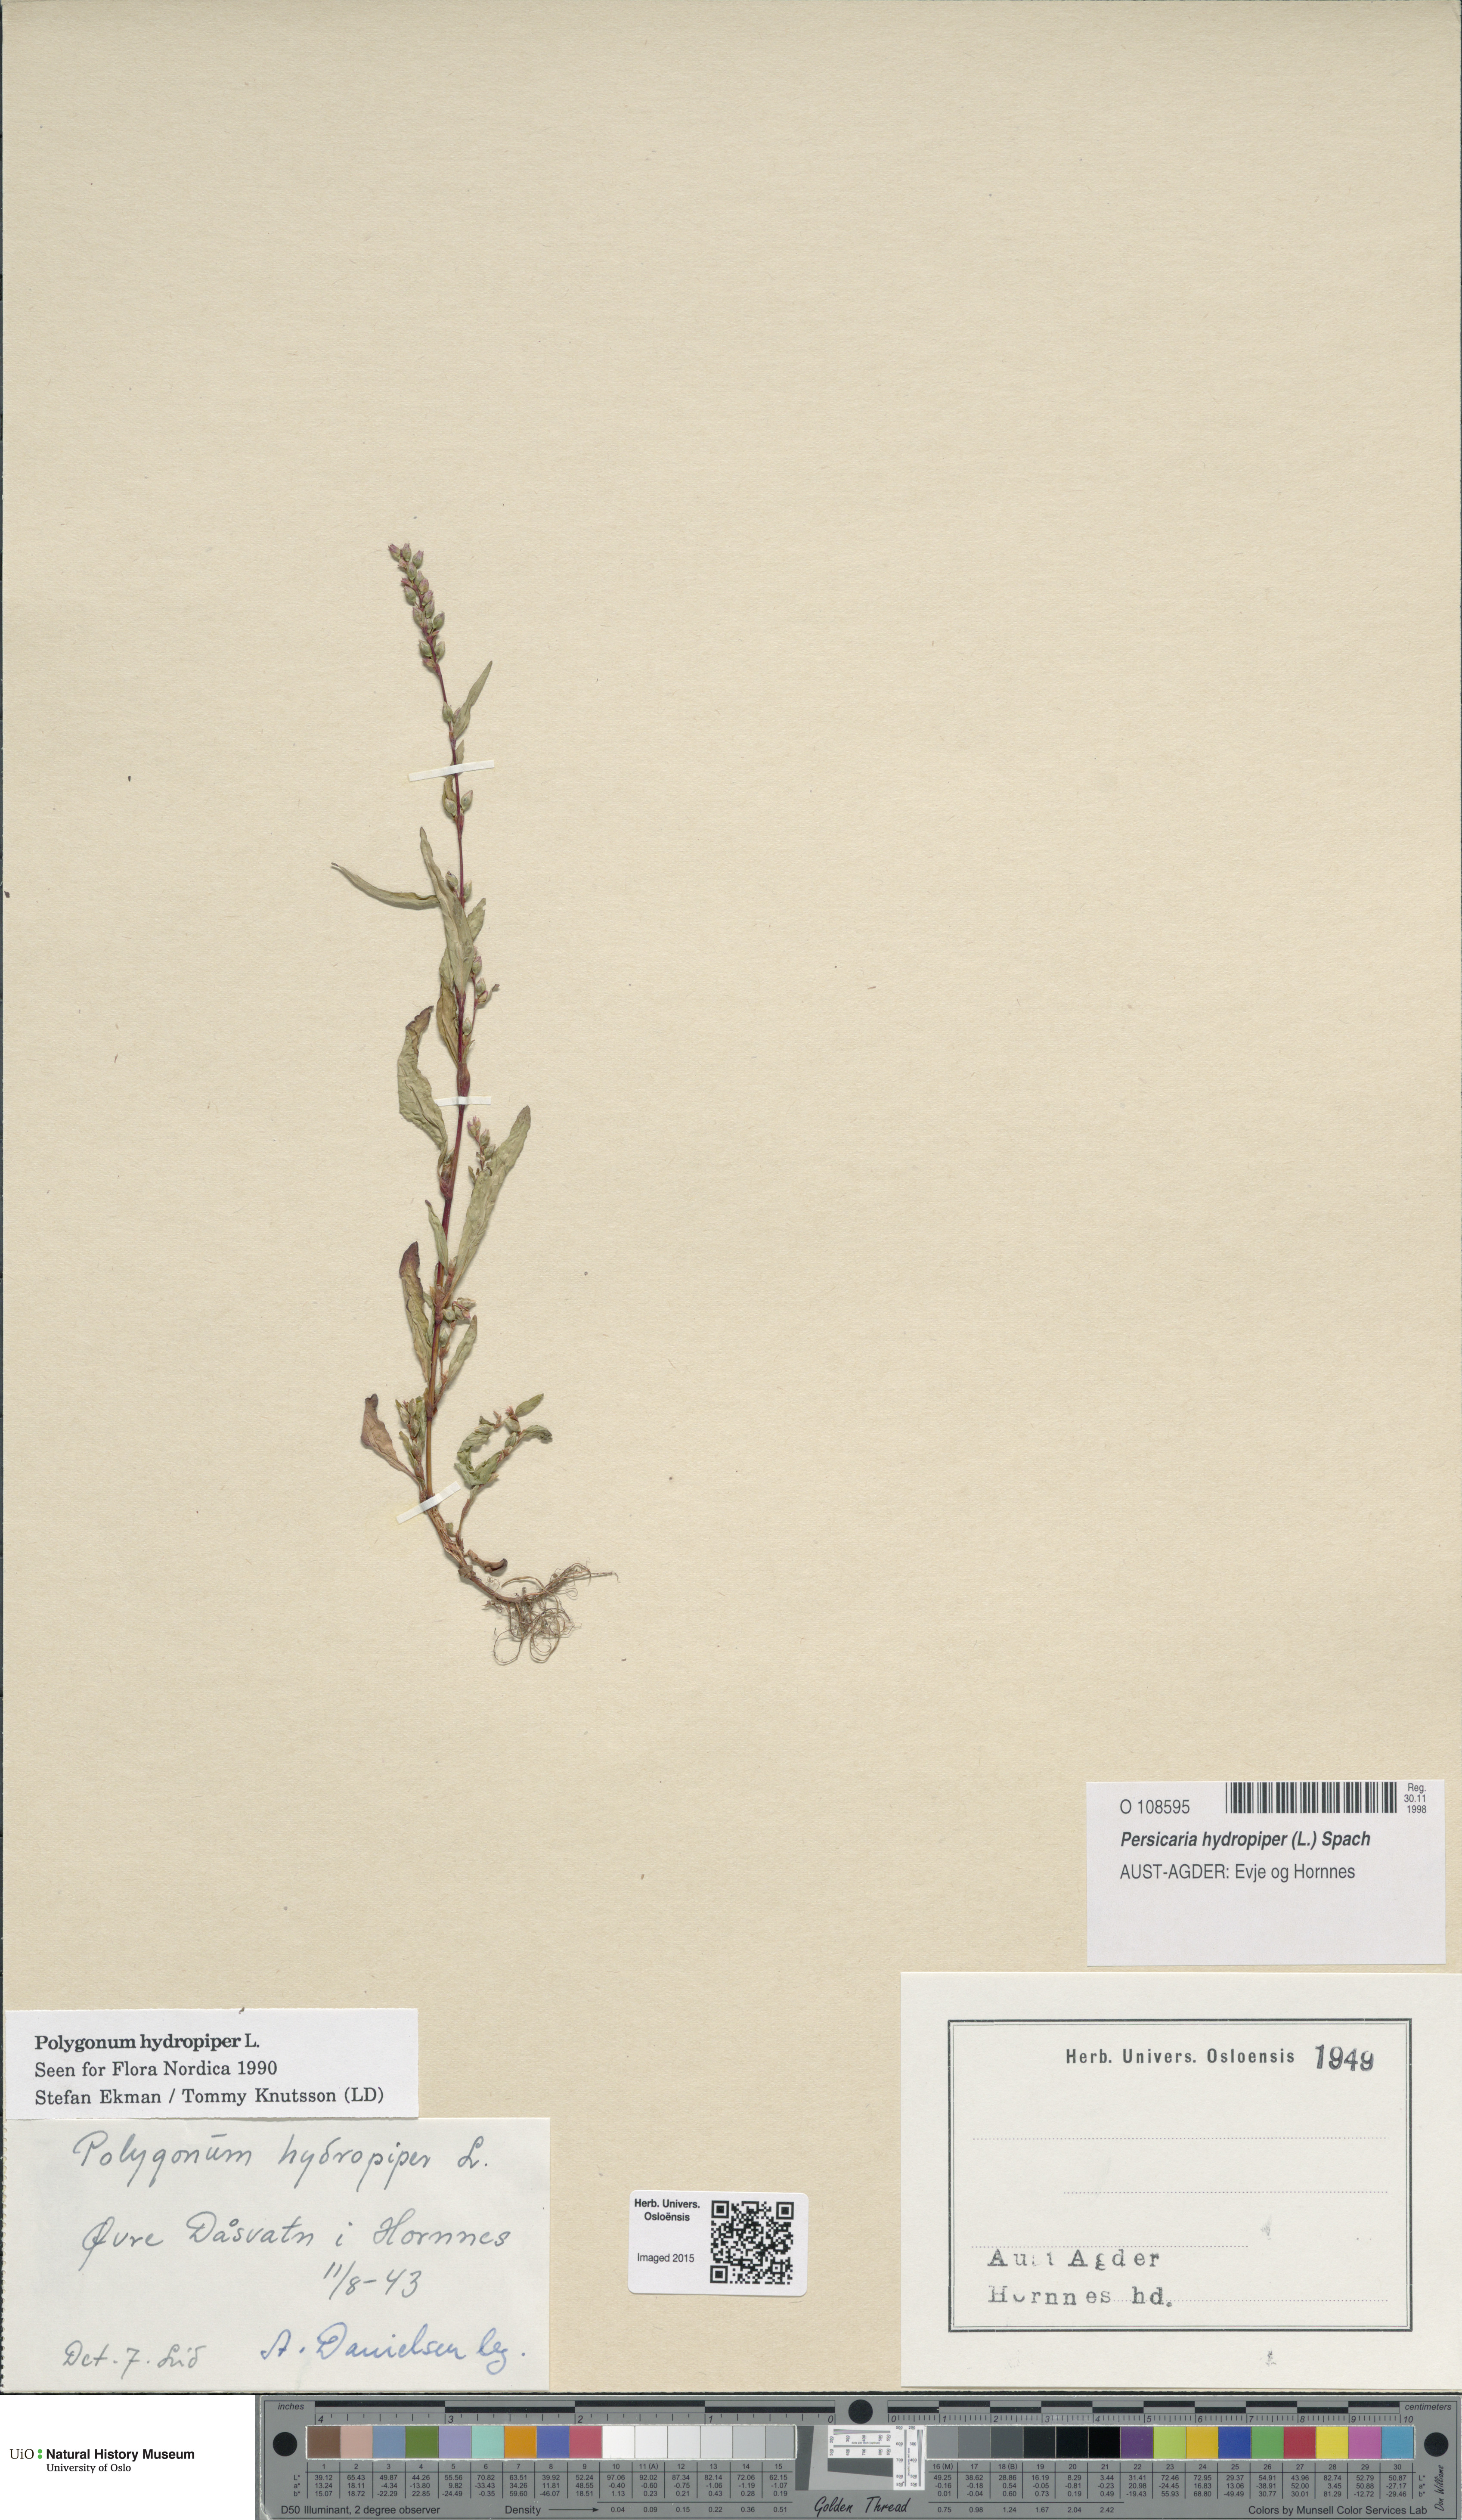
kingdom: Plantae
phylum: Tracheophyta
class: Magnoliopsida
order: Caryophyllales
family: Polygonaceae
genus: Persicaria
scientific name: Persicaria hydropiper
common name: Water-pepper
